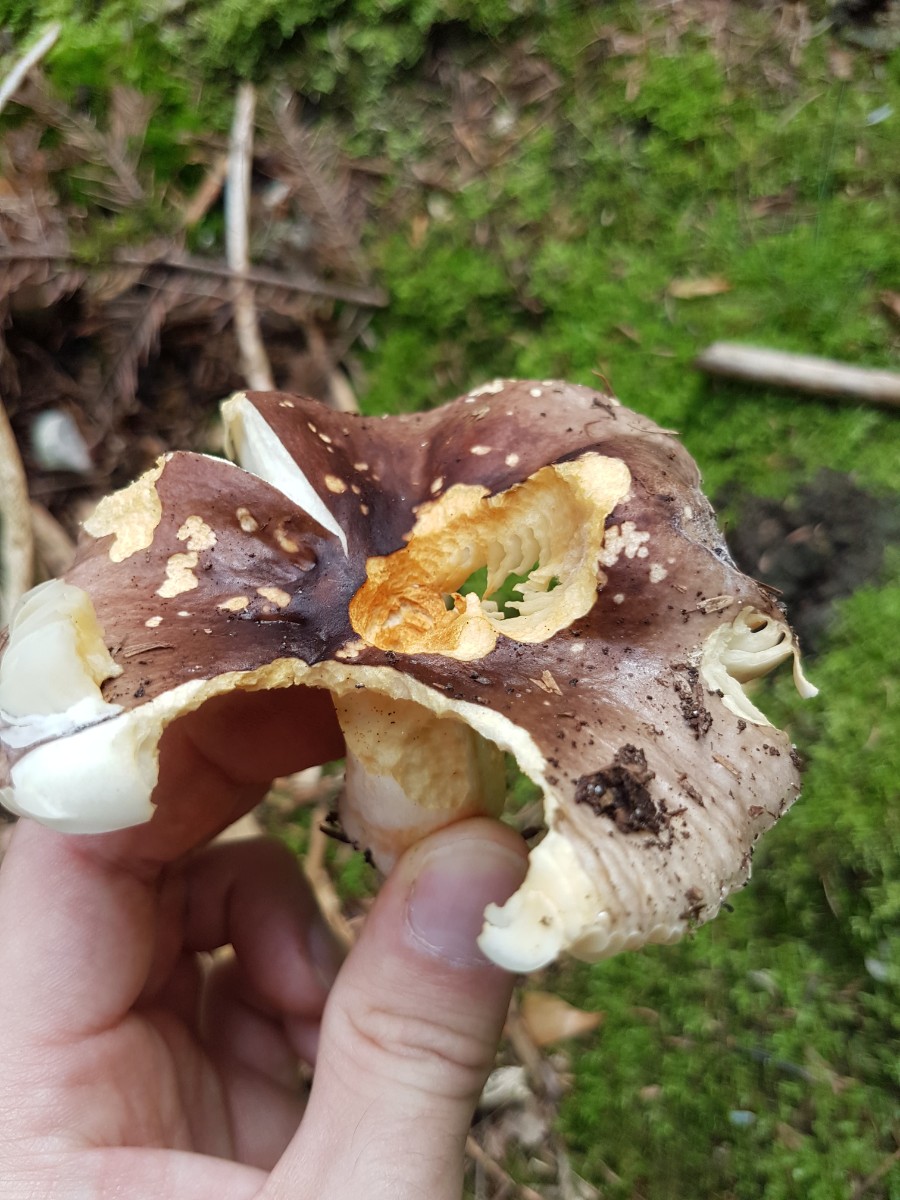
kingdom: Fungi
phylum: Basidiomycota
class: Agaricomycetes
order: Russulales
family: Russulaceae
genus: Russula
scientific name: Russula
